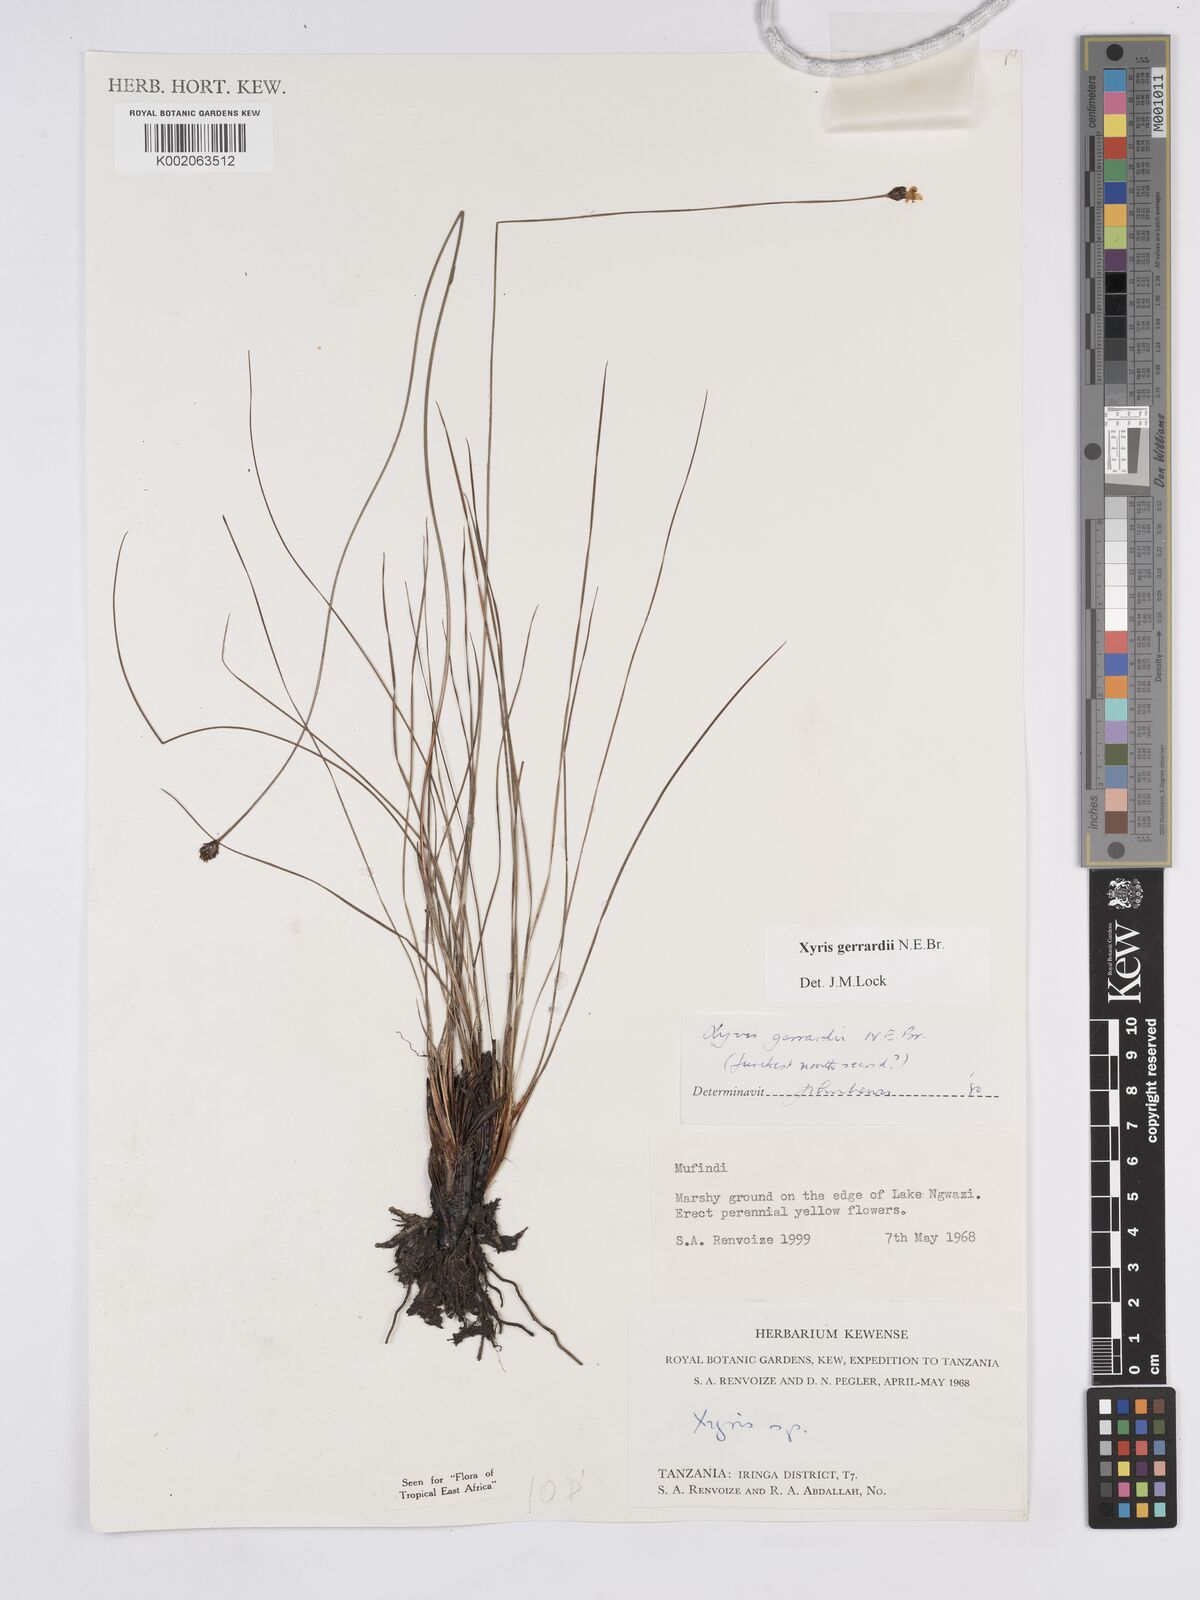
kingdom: Plantae
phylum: Tracheophyta
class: Liliopsida
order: Poales
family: Xyridaceae
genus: Xyris
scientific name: Xyris gerrardii
